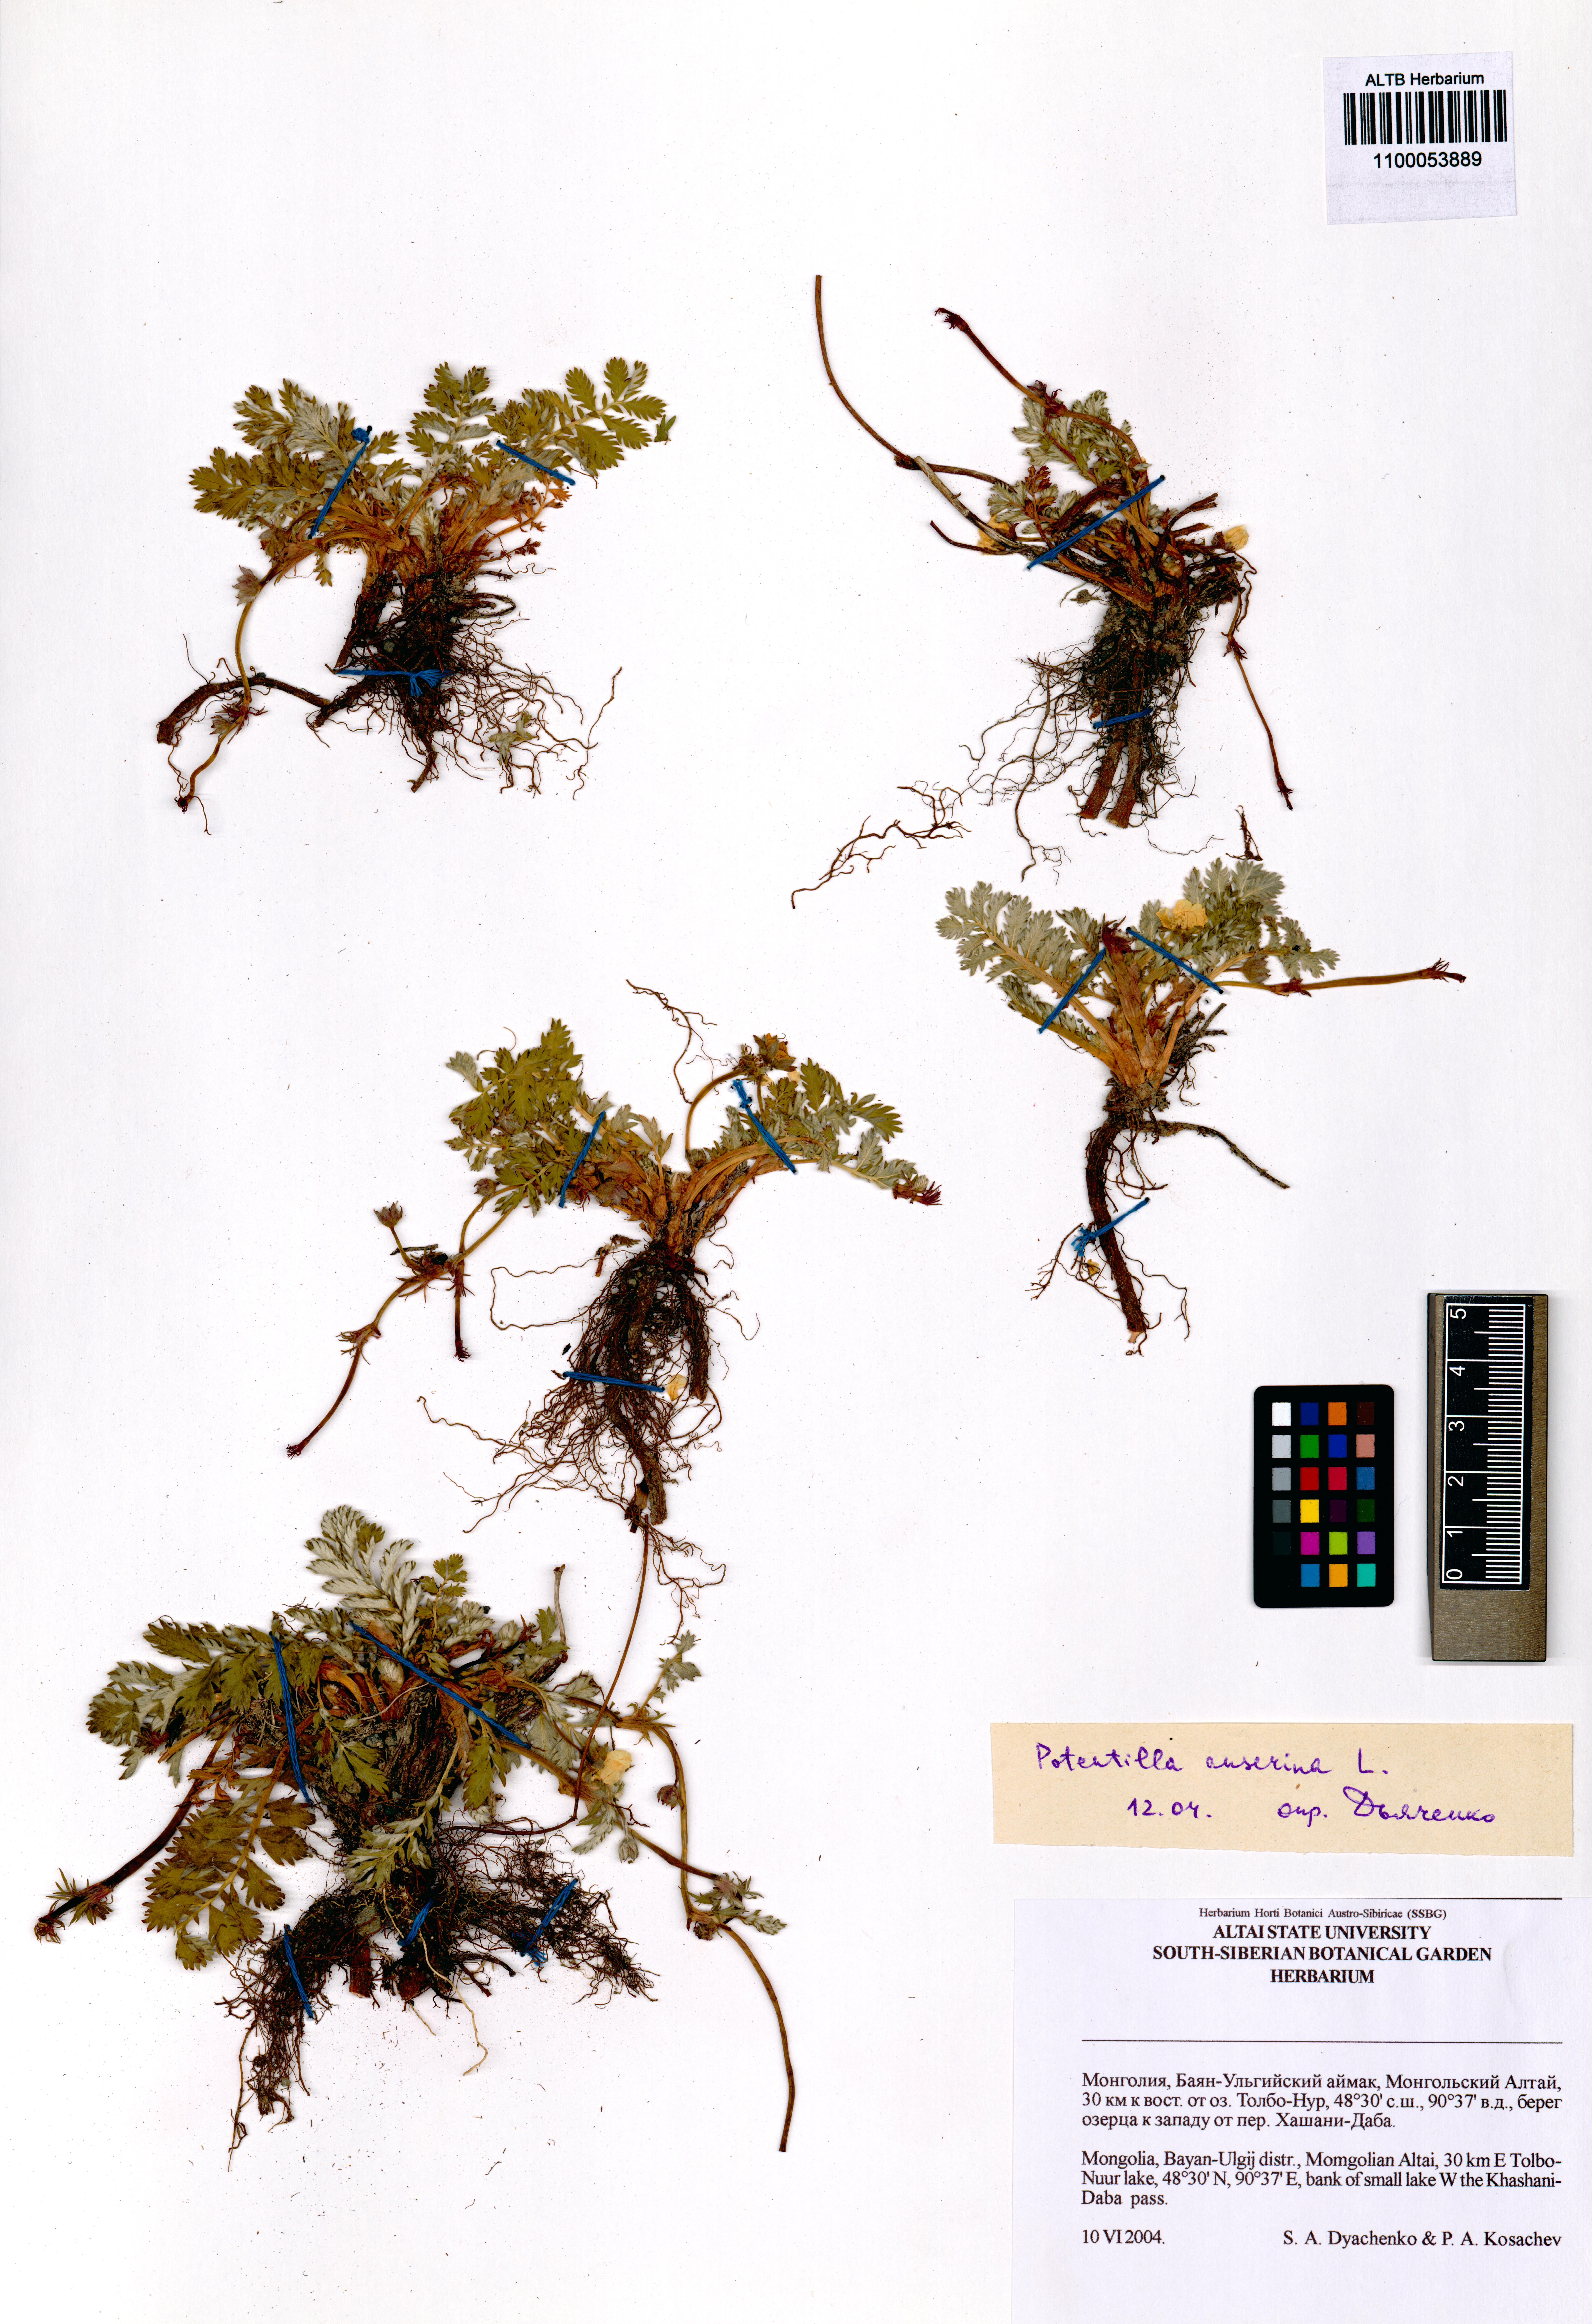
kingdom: Plantae
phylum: Tracheophyta
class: Magnoliopsida
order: Rosales
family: Rosaceae
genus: Argentina
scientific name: Argentina anserina
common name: Common silverweed
